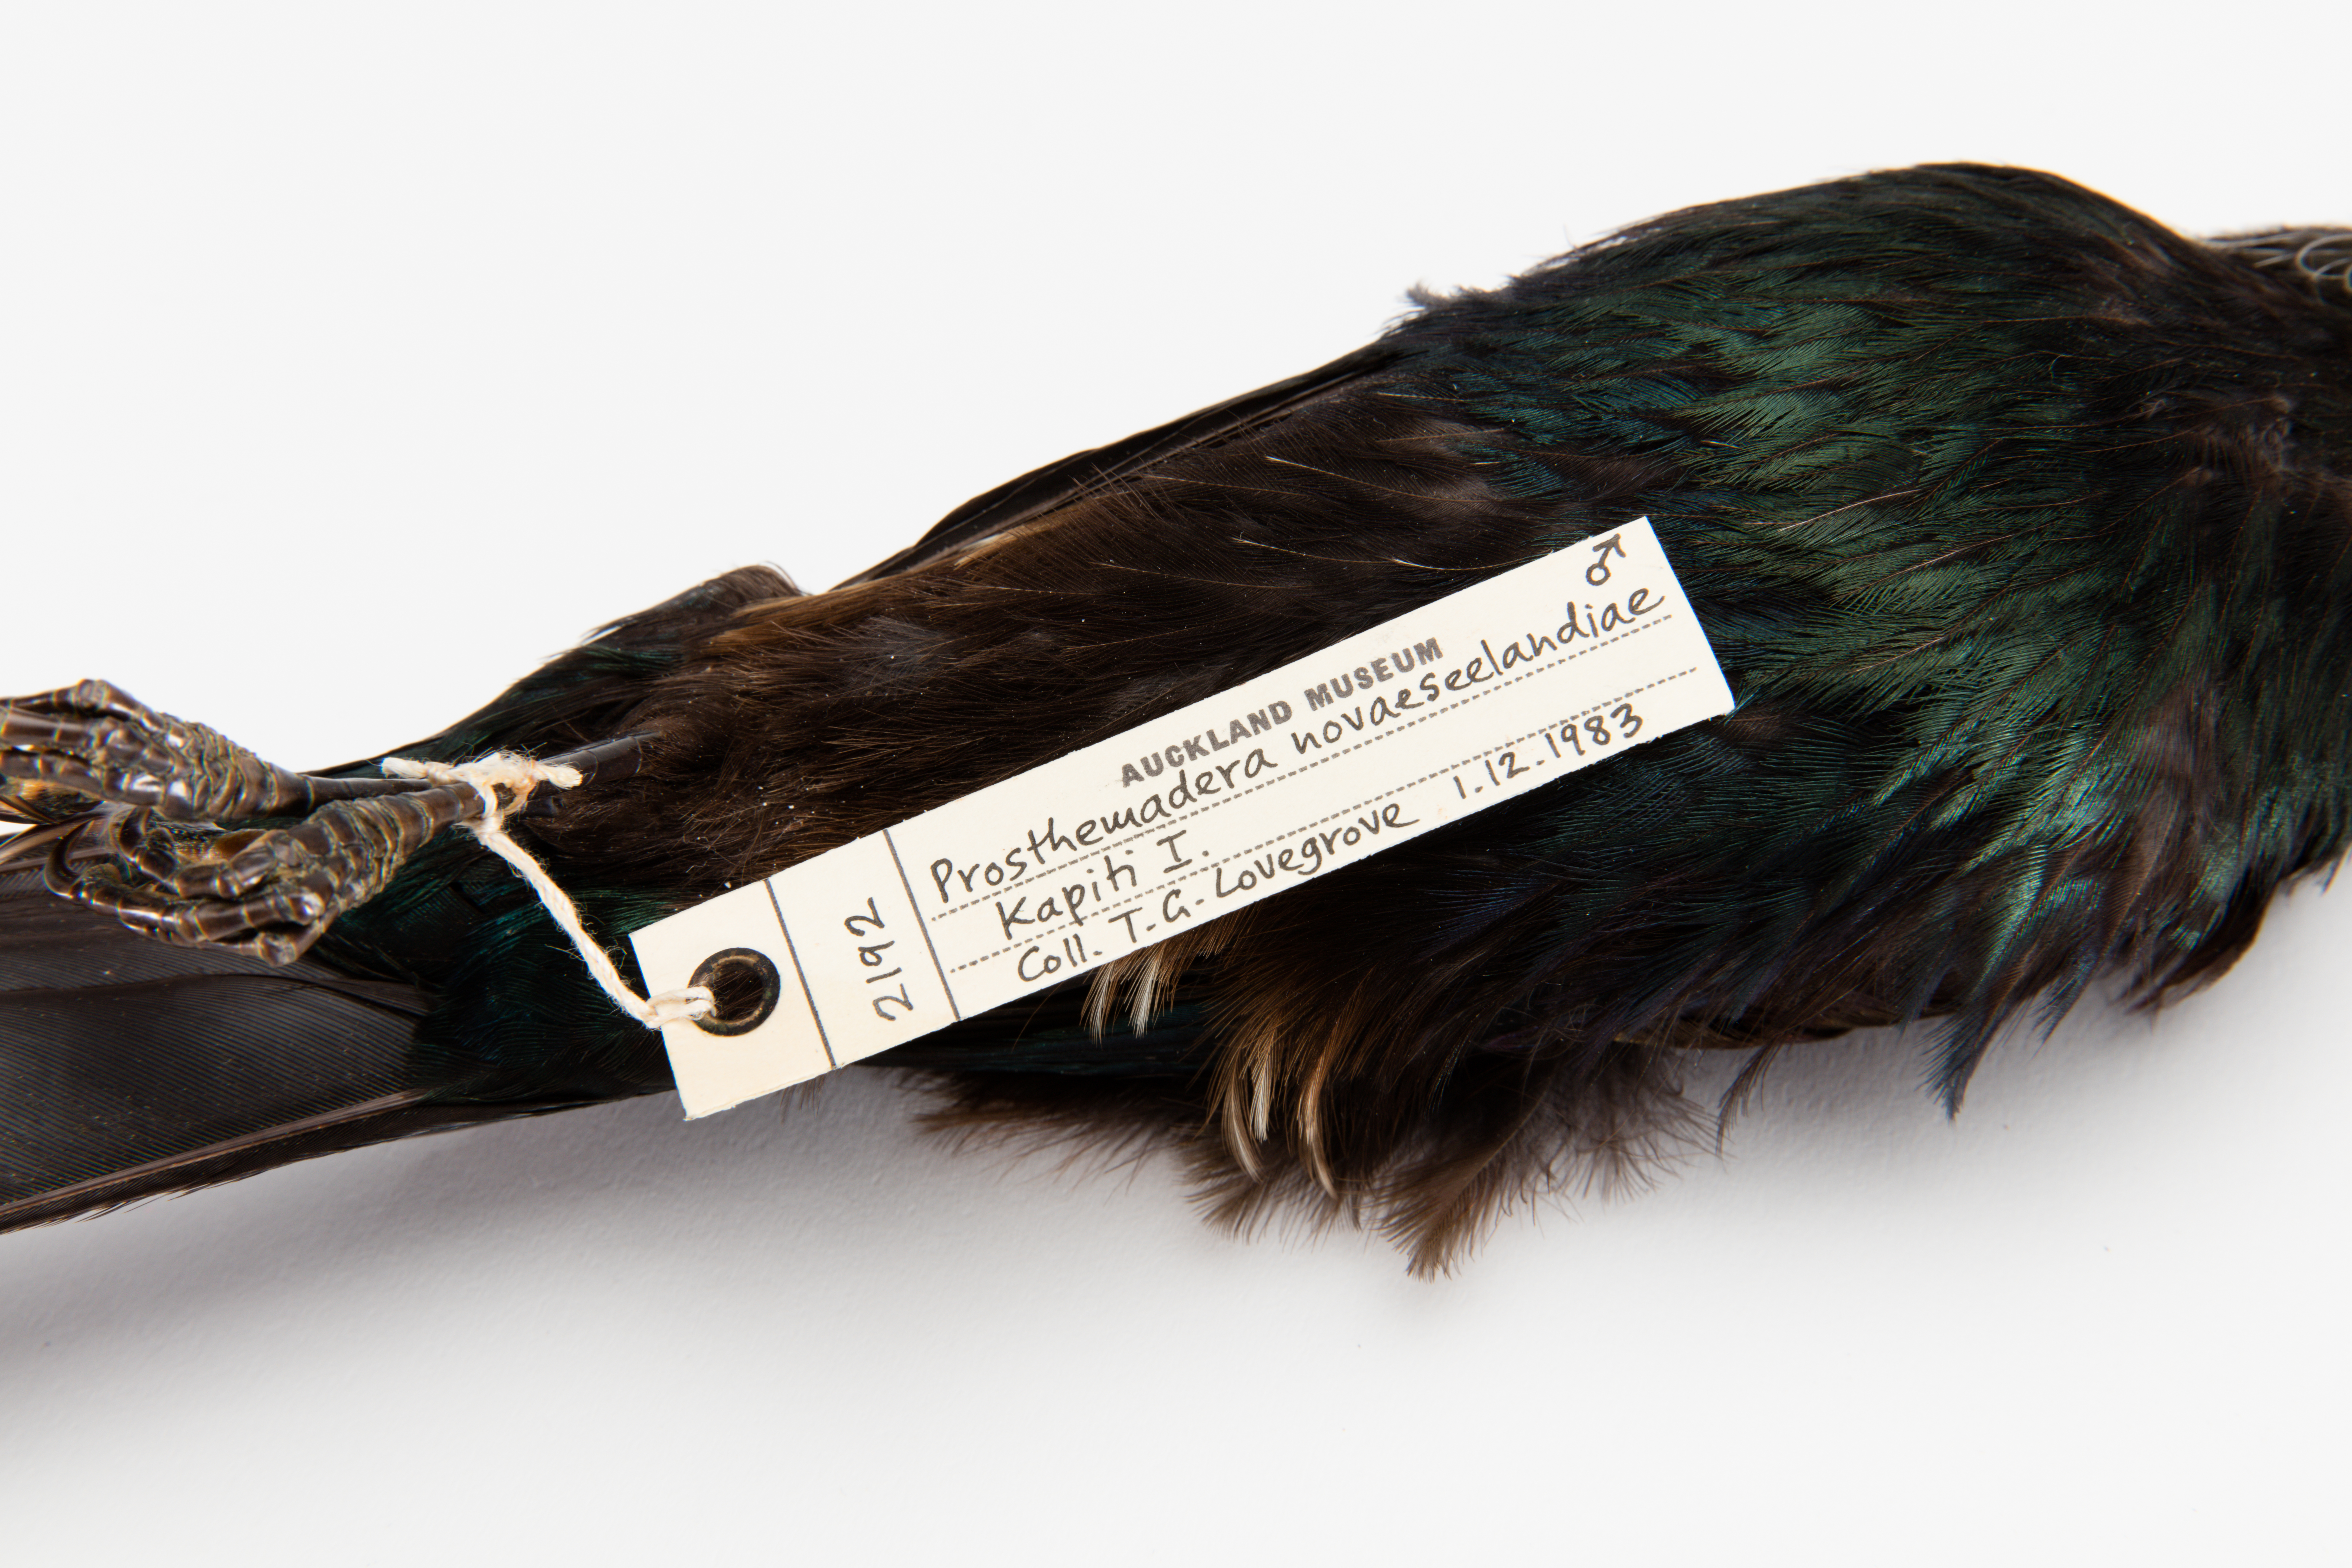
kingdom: Animalia
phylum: Chordata
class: Aves
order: Passeriformes
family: Meliphagidae
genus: Prosthemadera
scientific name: Prosthemadera novaeseelandiae
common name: Tui
